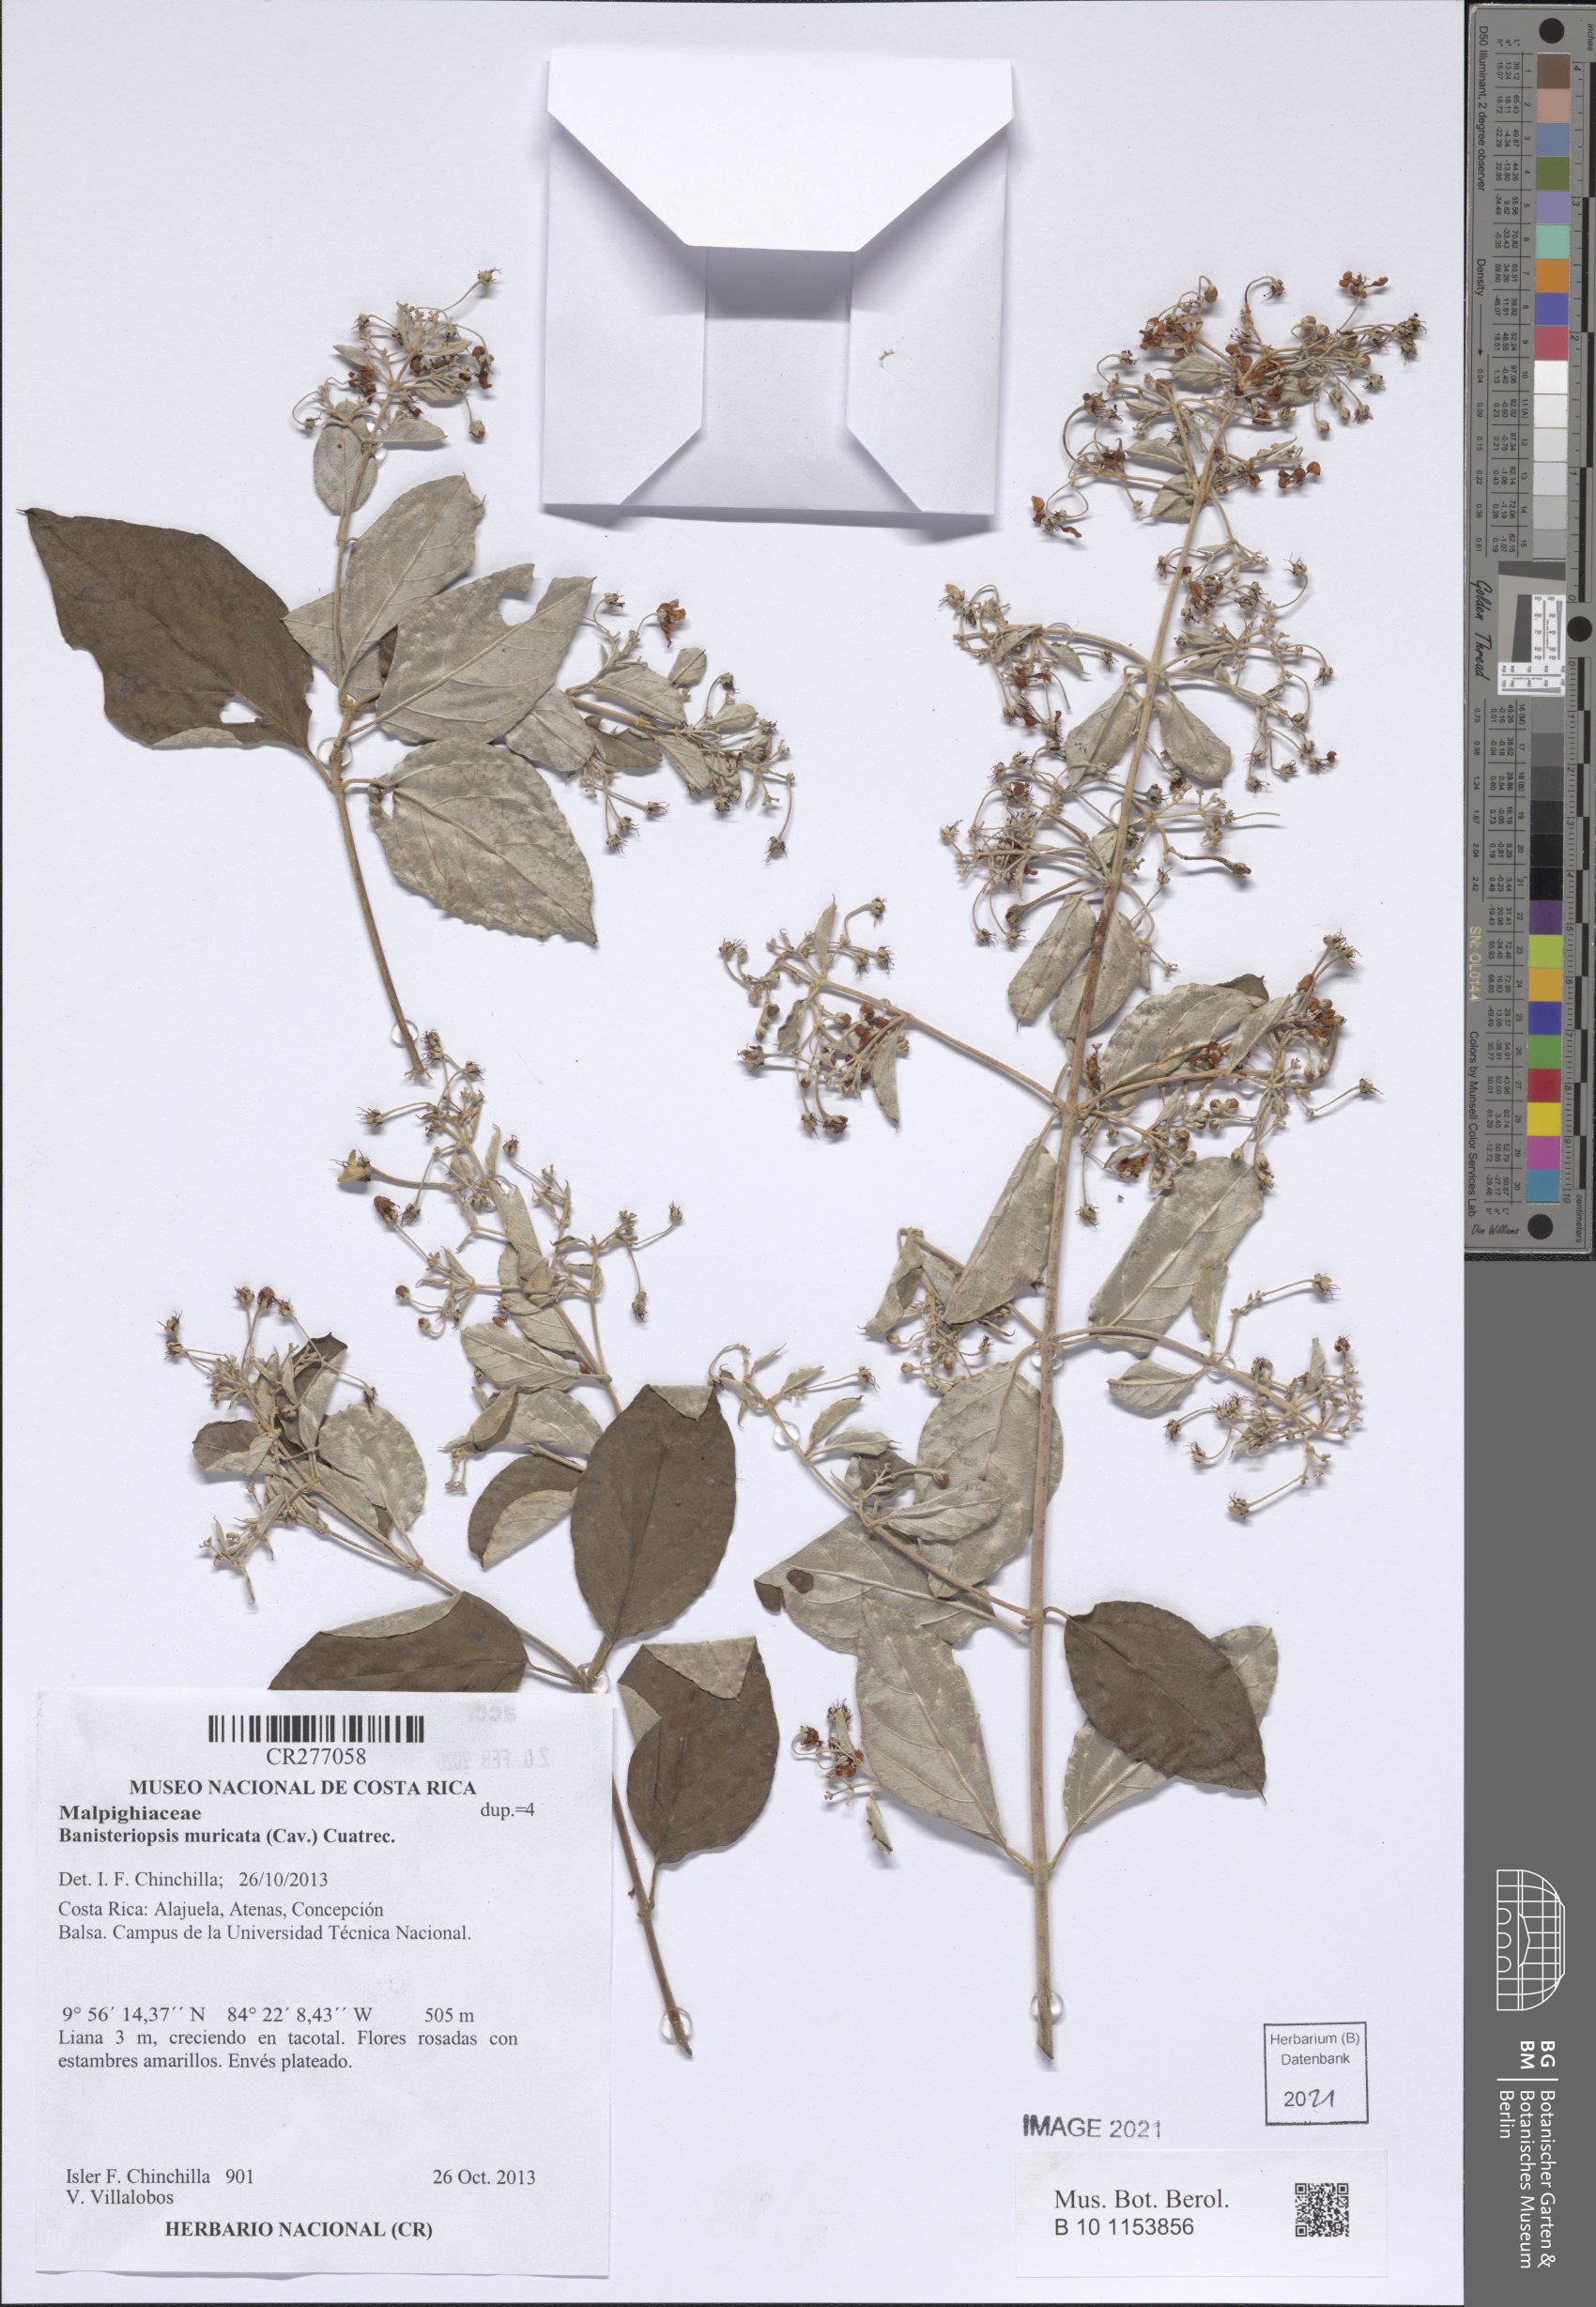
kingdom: Plantae
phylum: Tracheophyta
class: Magnoliopsida
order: Malpighiales
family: Malpighiaceae
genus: Banisteriopsis
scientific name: Banisteriopsis muricata
